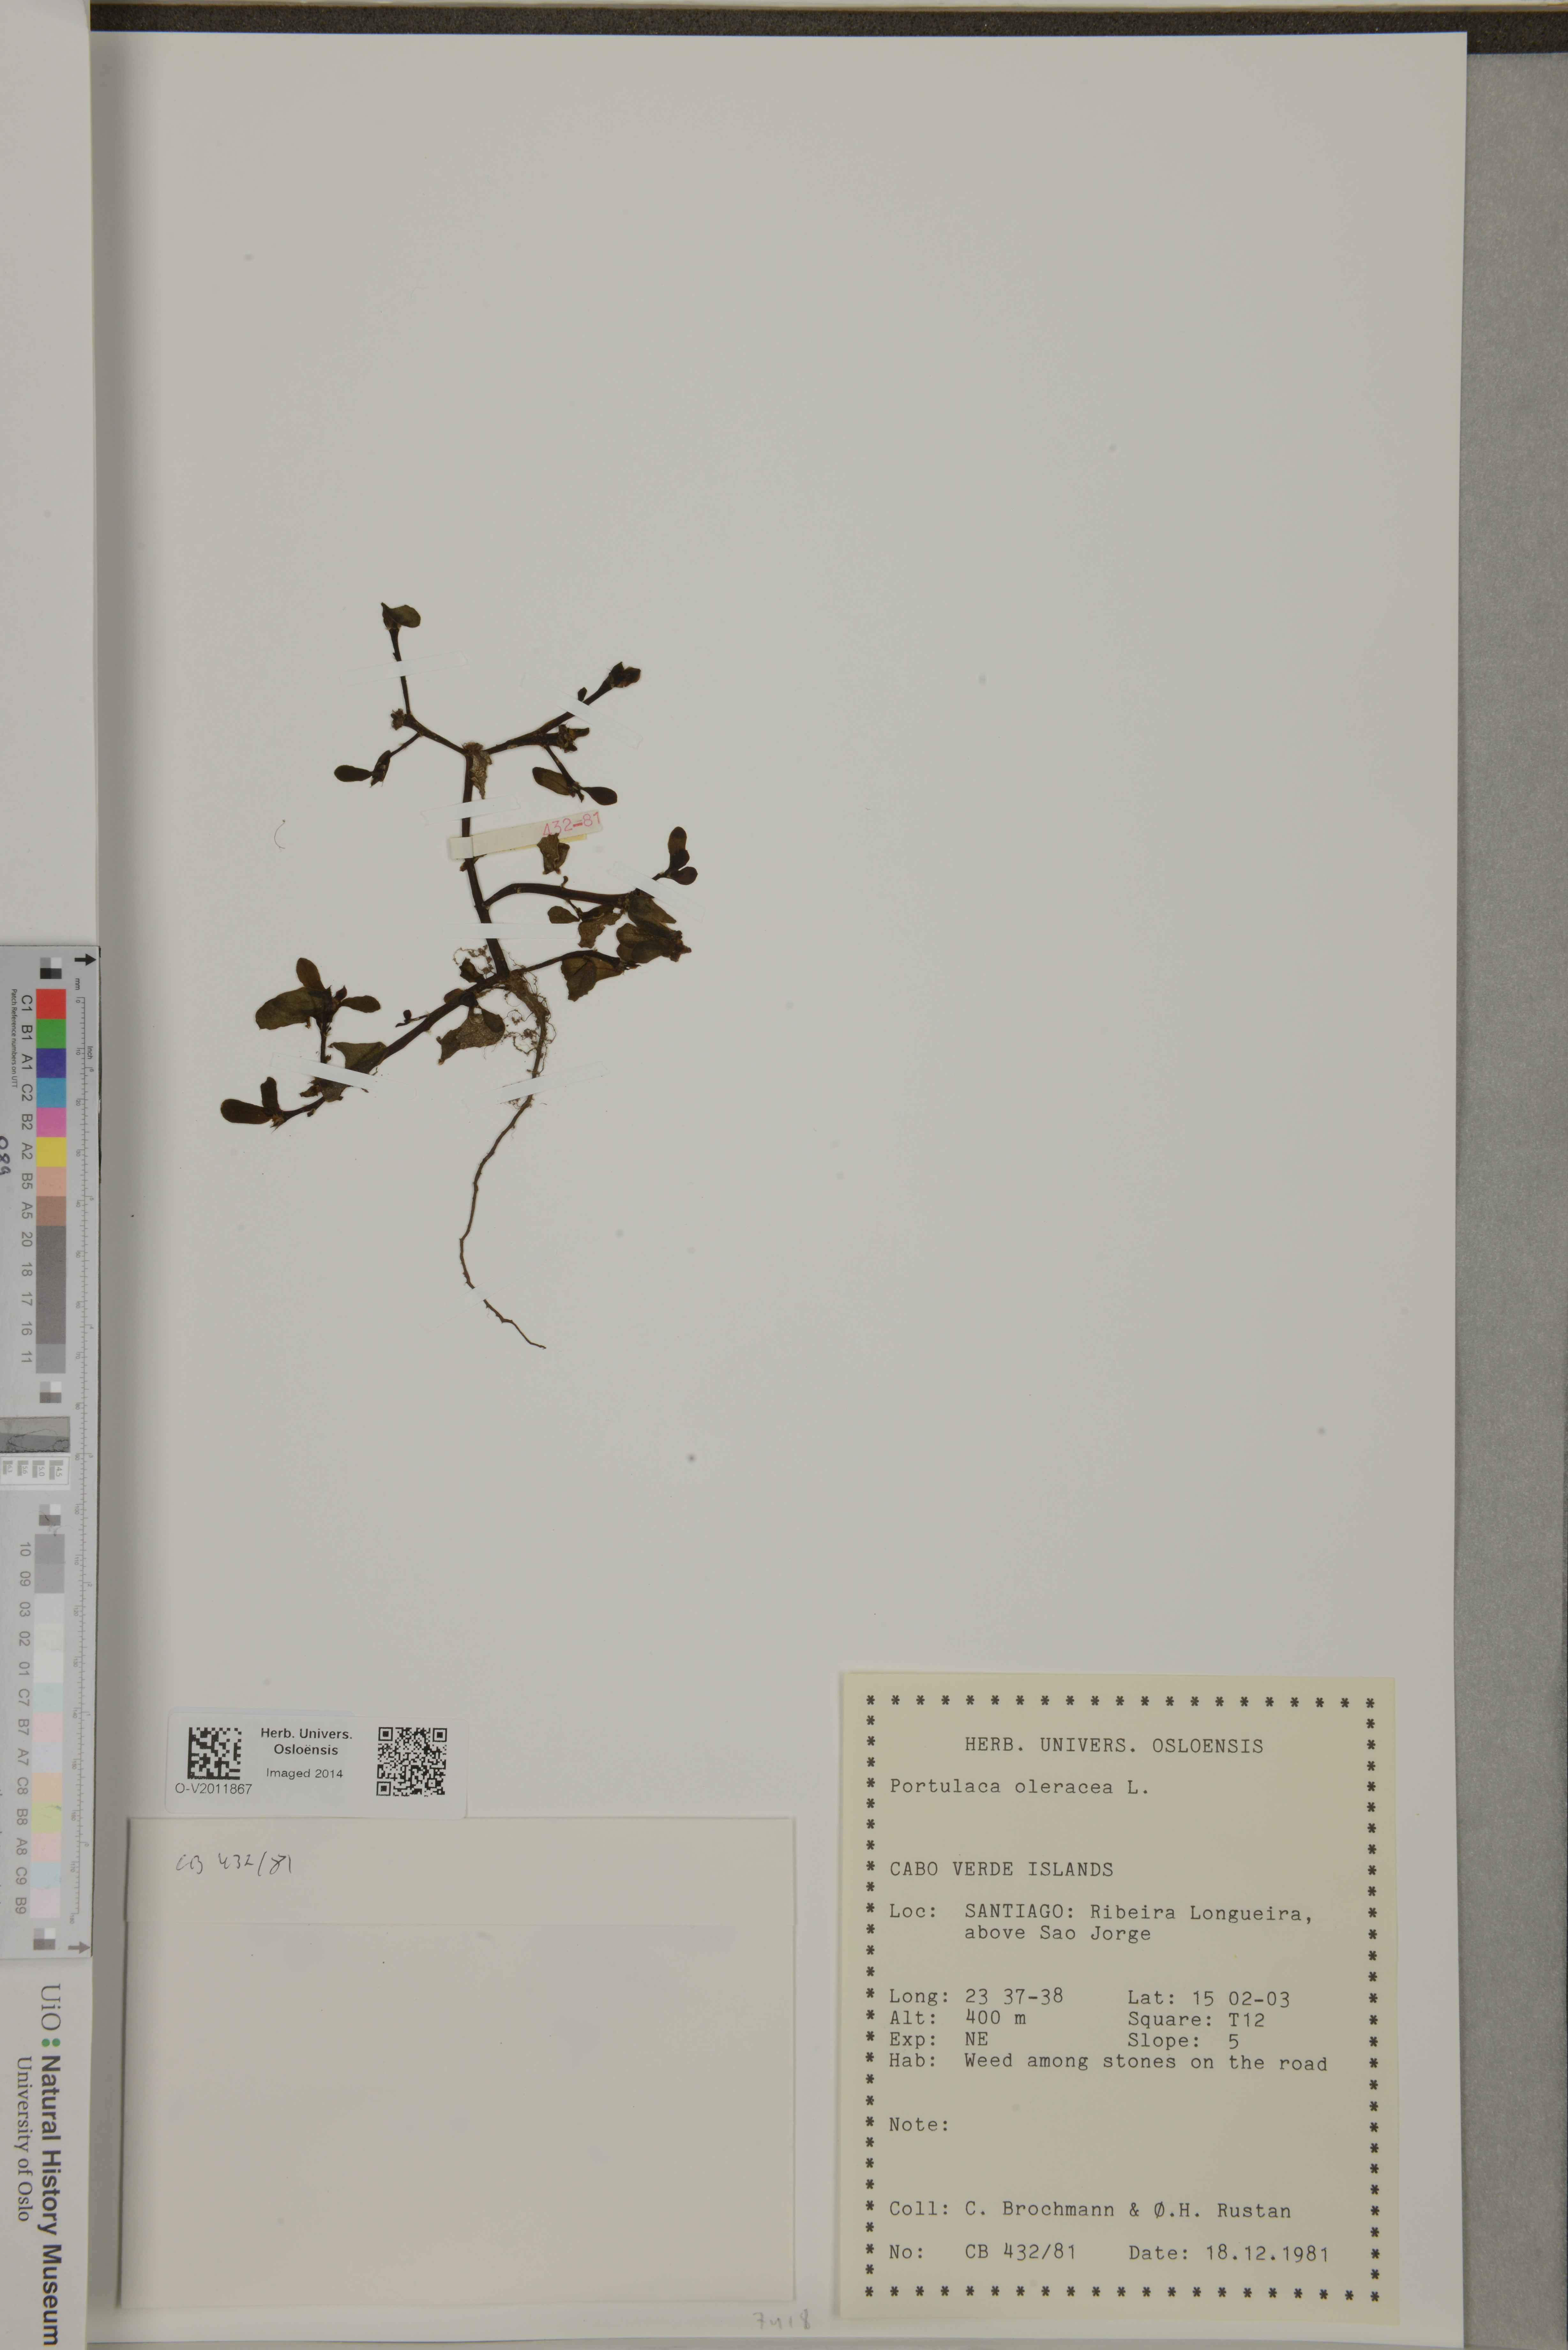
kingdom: Plantae
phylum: Tracheophyta
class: Magnoliopsida
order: Caryophyllales
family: Portulacaceae
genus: Portulaca
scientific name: Portulaca oleracea
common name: Common purslane
